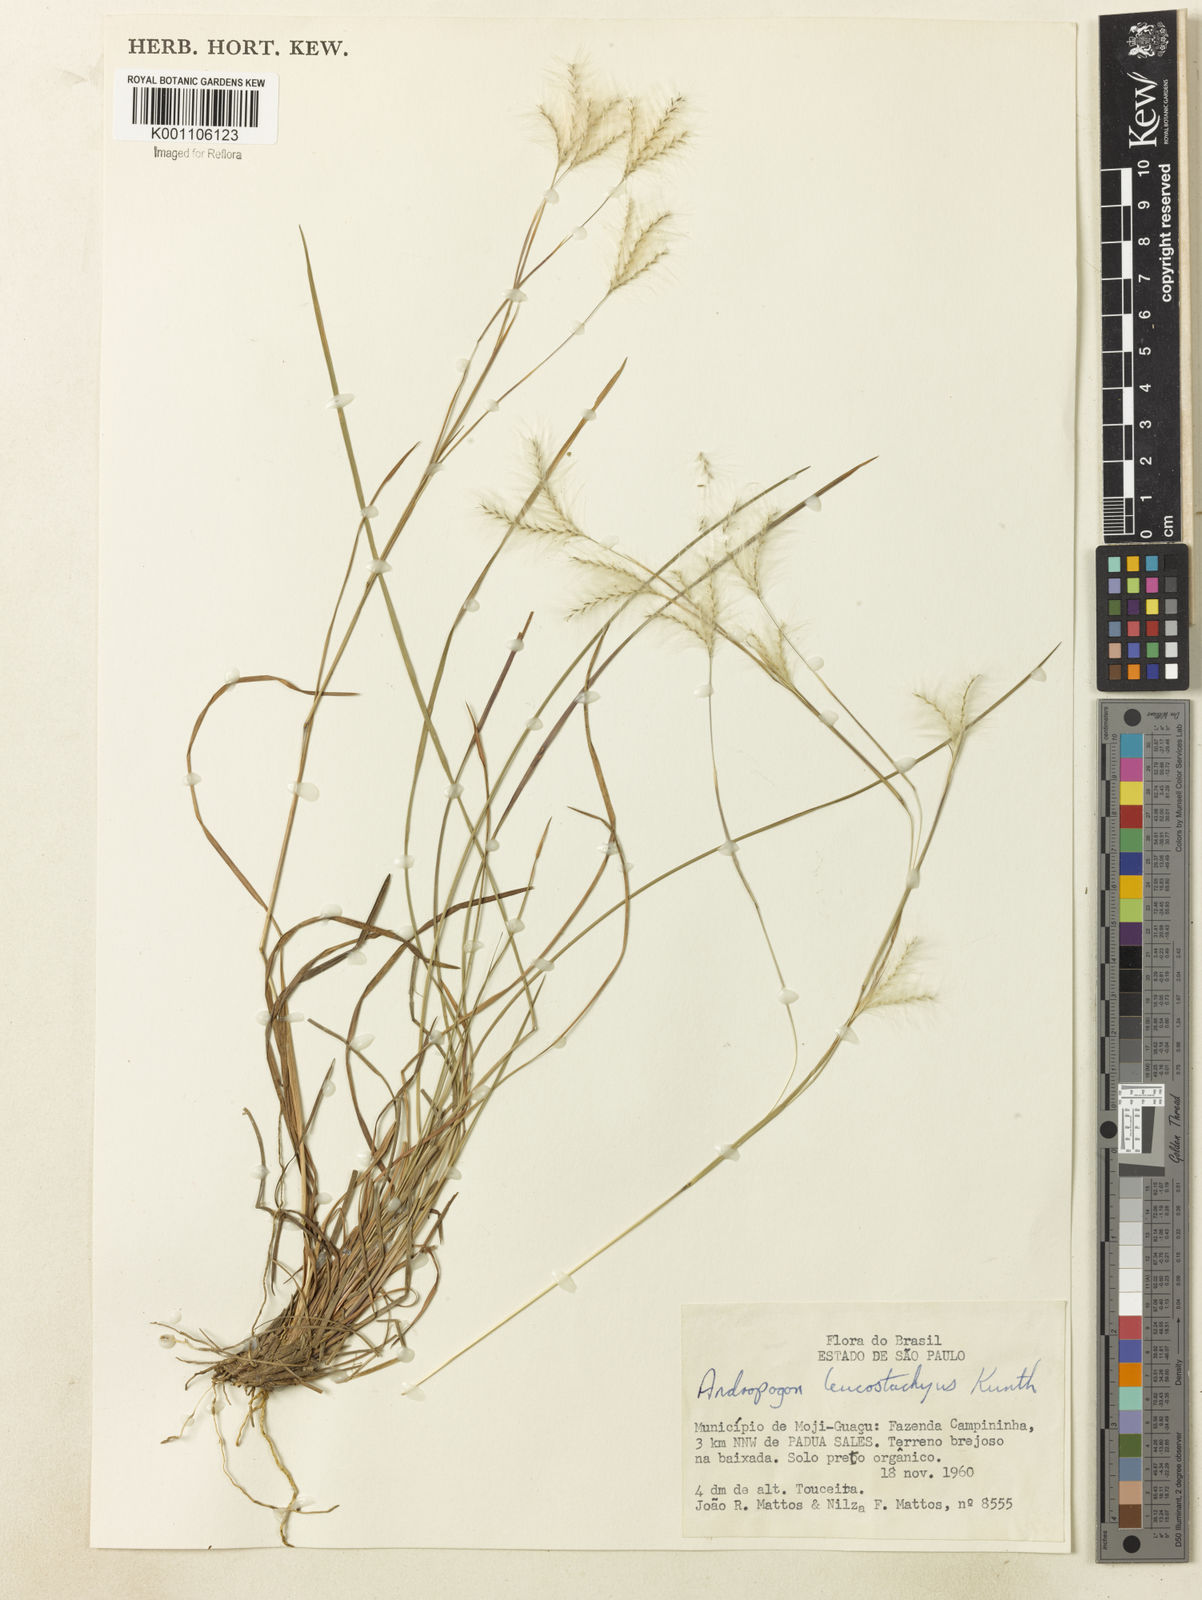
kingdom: Plantae
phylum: Tracheophyta
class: Liliopsida
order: Poales
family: Poaceae
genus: Andropogon
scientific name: Andropogon leucostachyus
